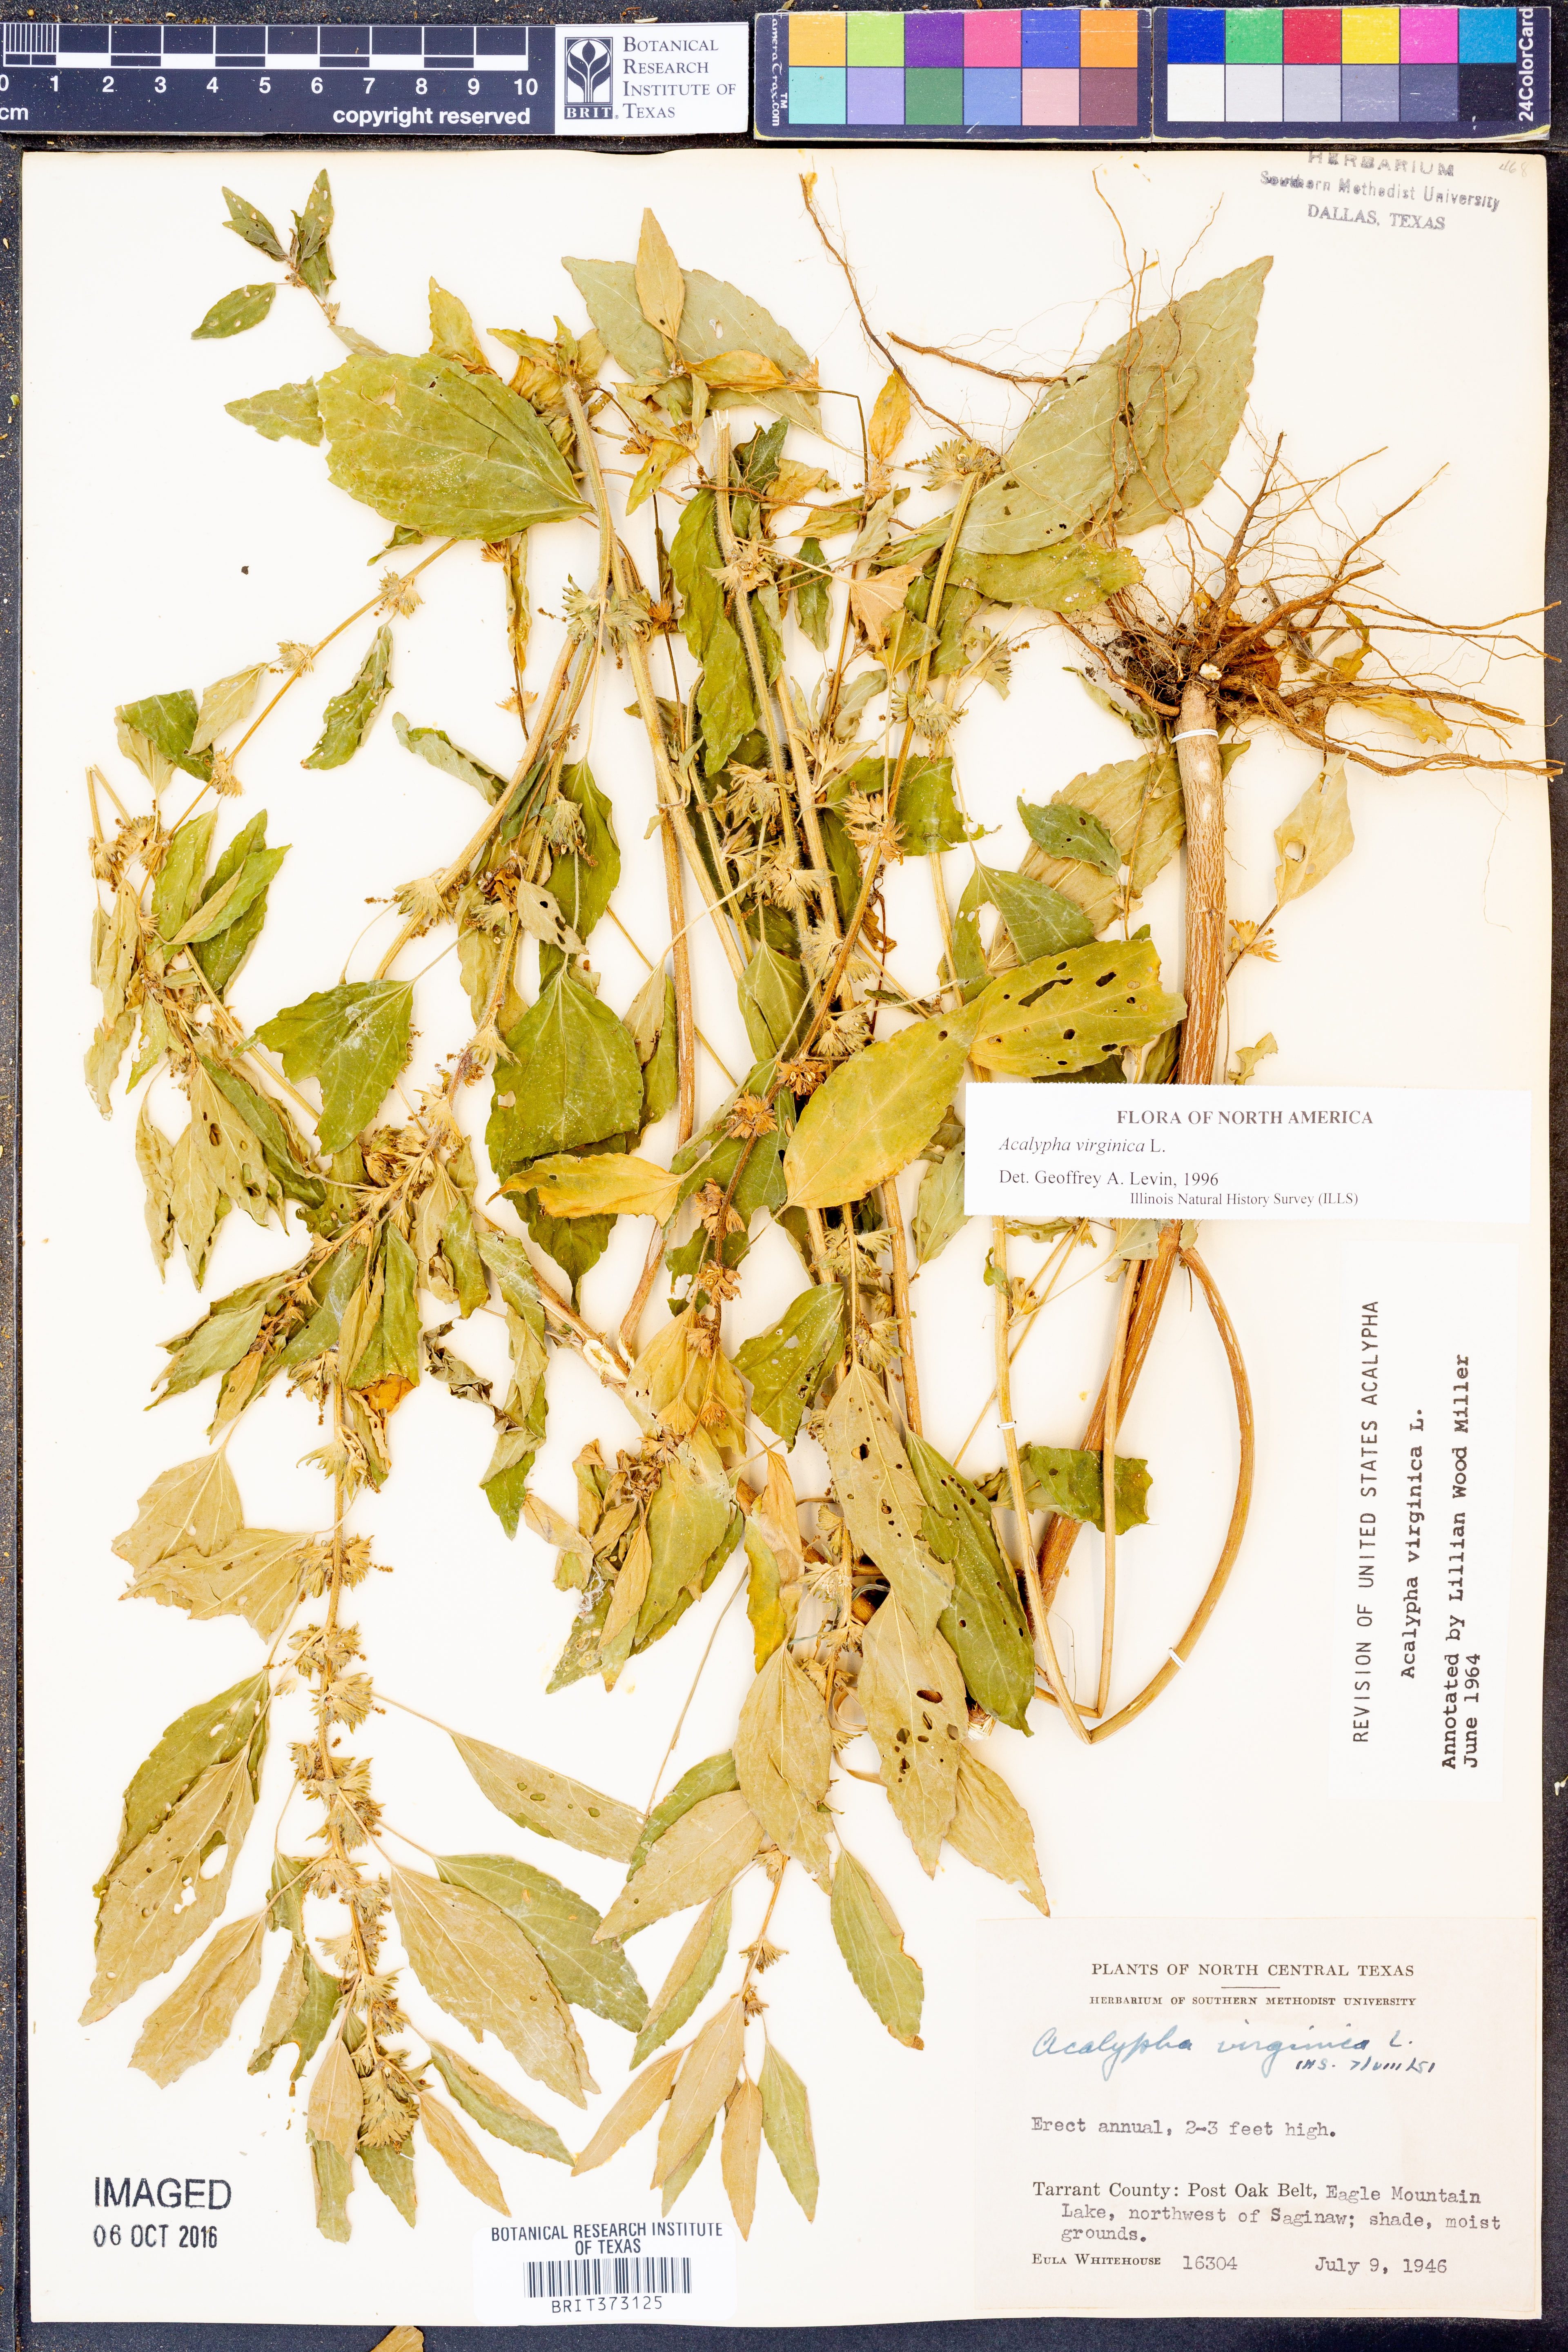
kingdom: Plantae
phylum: Tracheophyta
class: Magnoliopsida
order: Malpighiales
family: Euphorbiaceae
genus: Acalypha
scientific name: Acalypha virginica
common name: Virginia copperleaf
